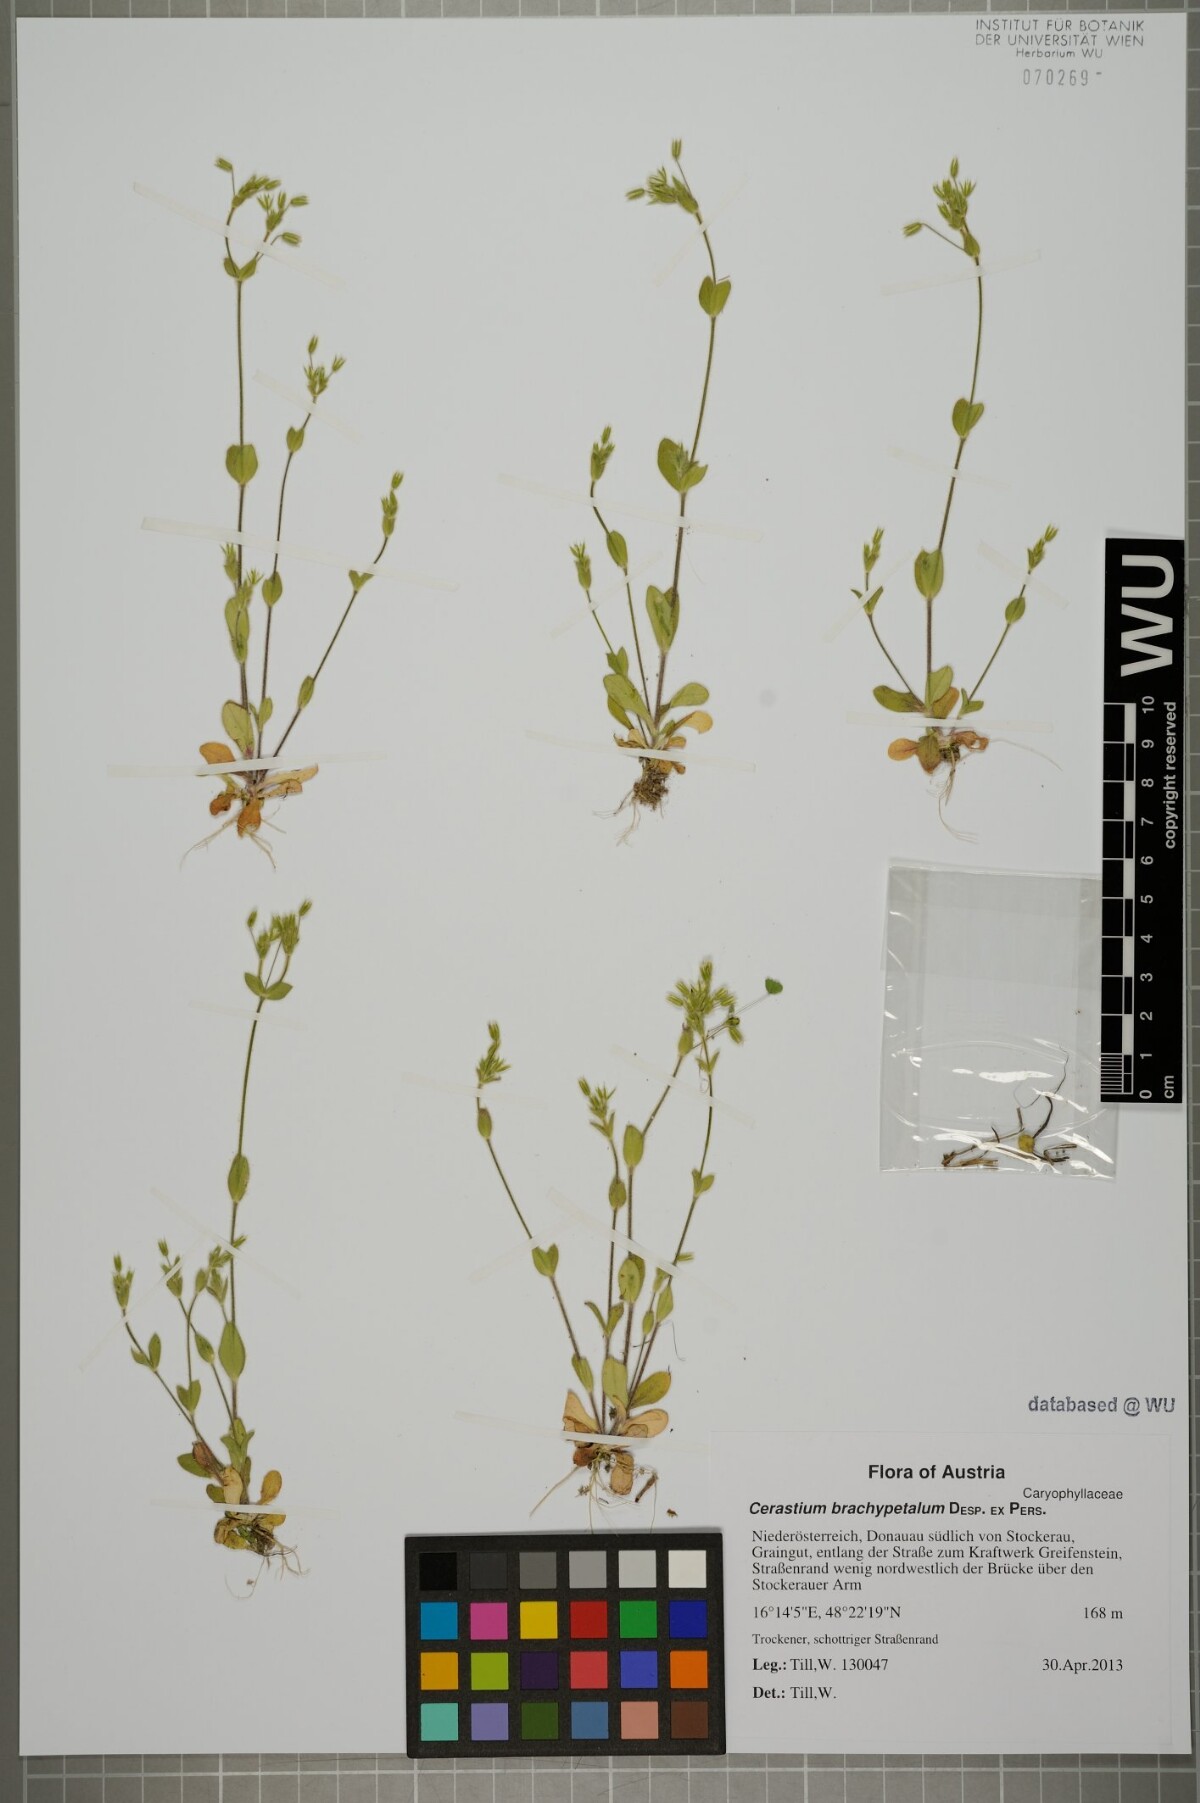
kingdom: Plantae
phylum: Tracheophyta
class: Magnoliopsida
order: Caryophyllales
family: Caryophyllaceae
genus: Cerastium
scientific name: Cerastium brachypetalum
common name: Grey mouse-ear
